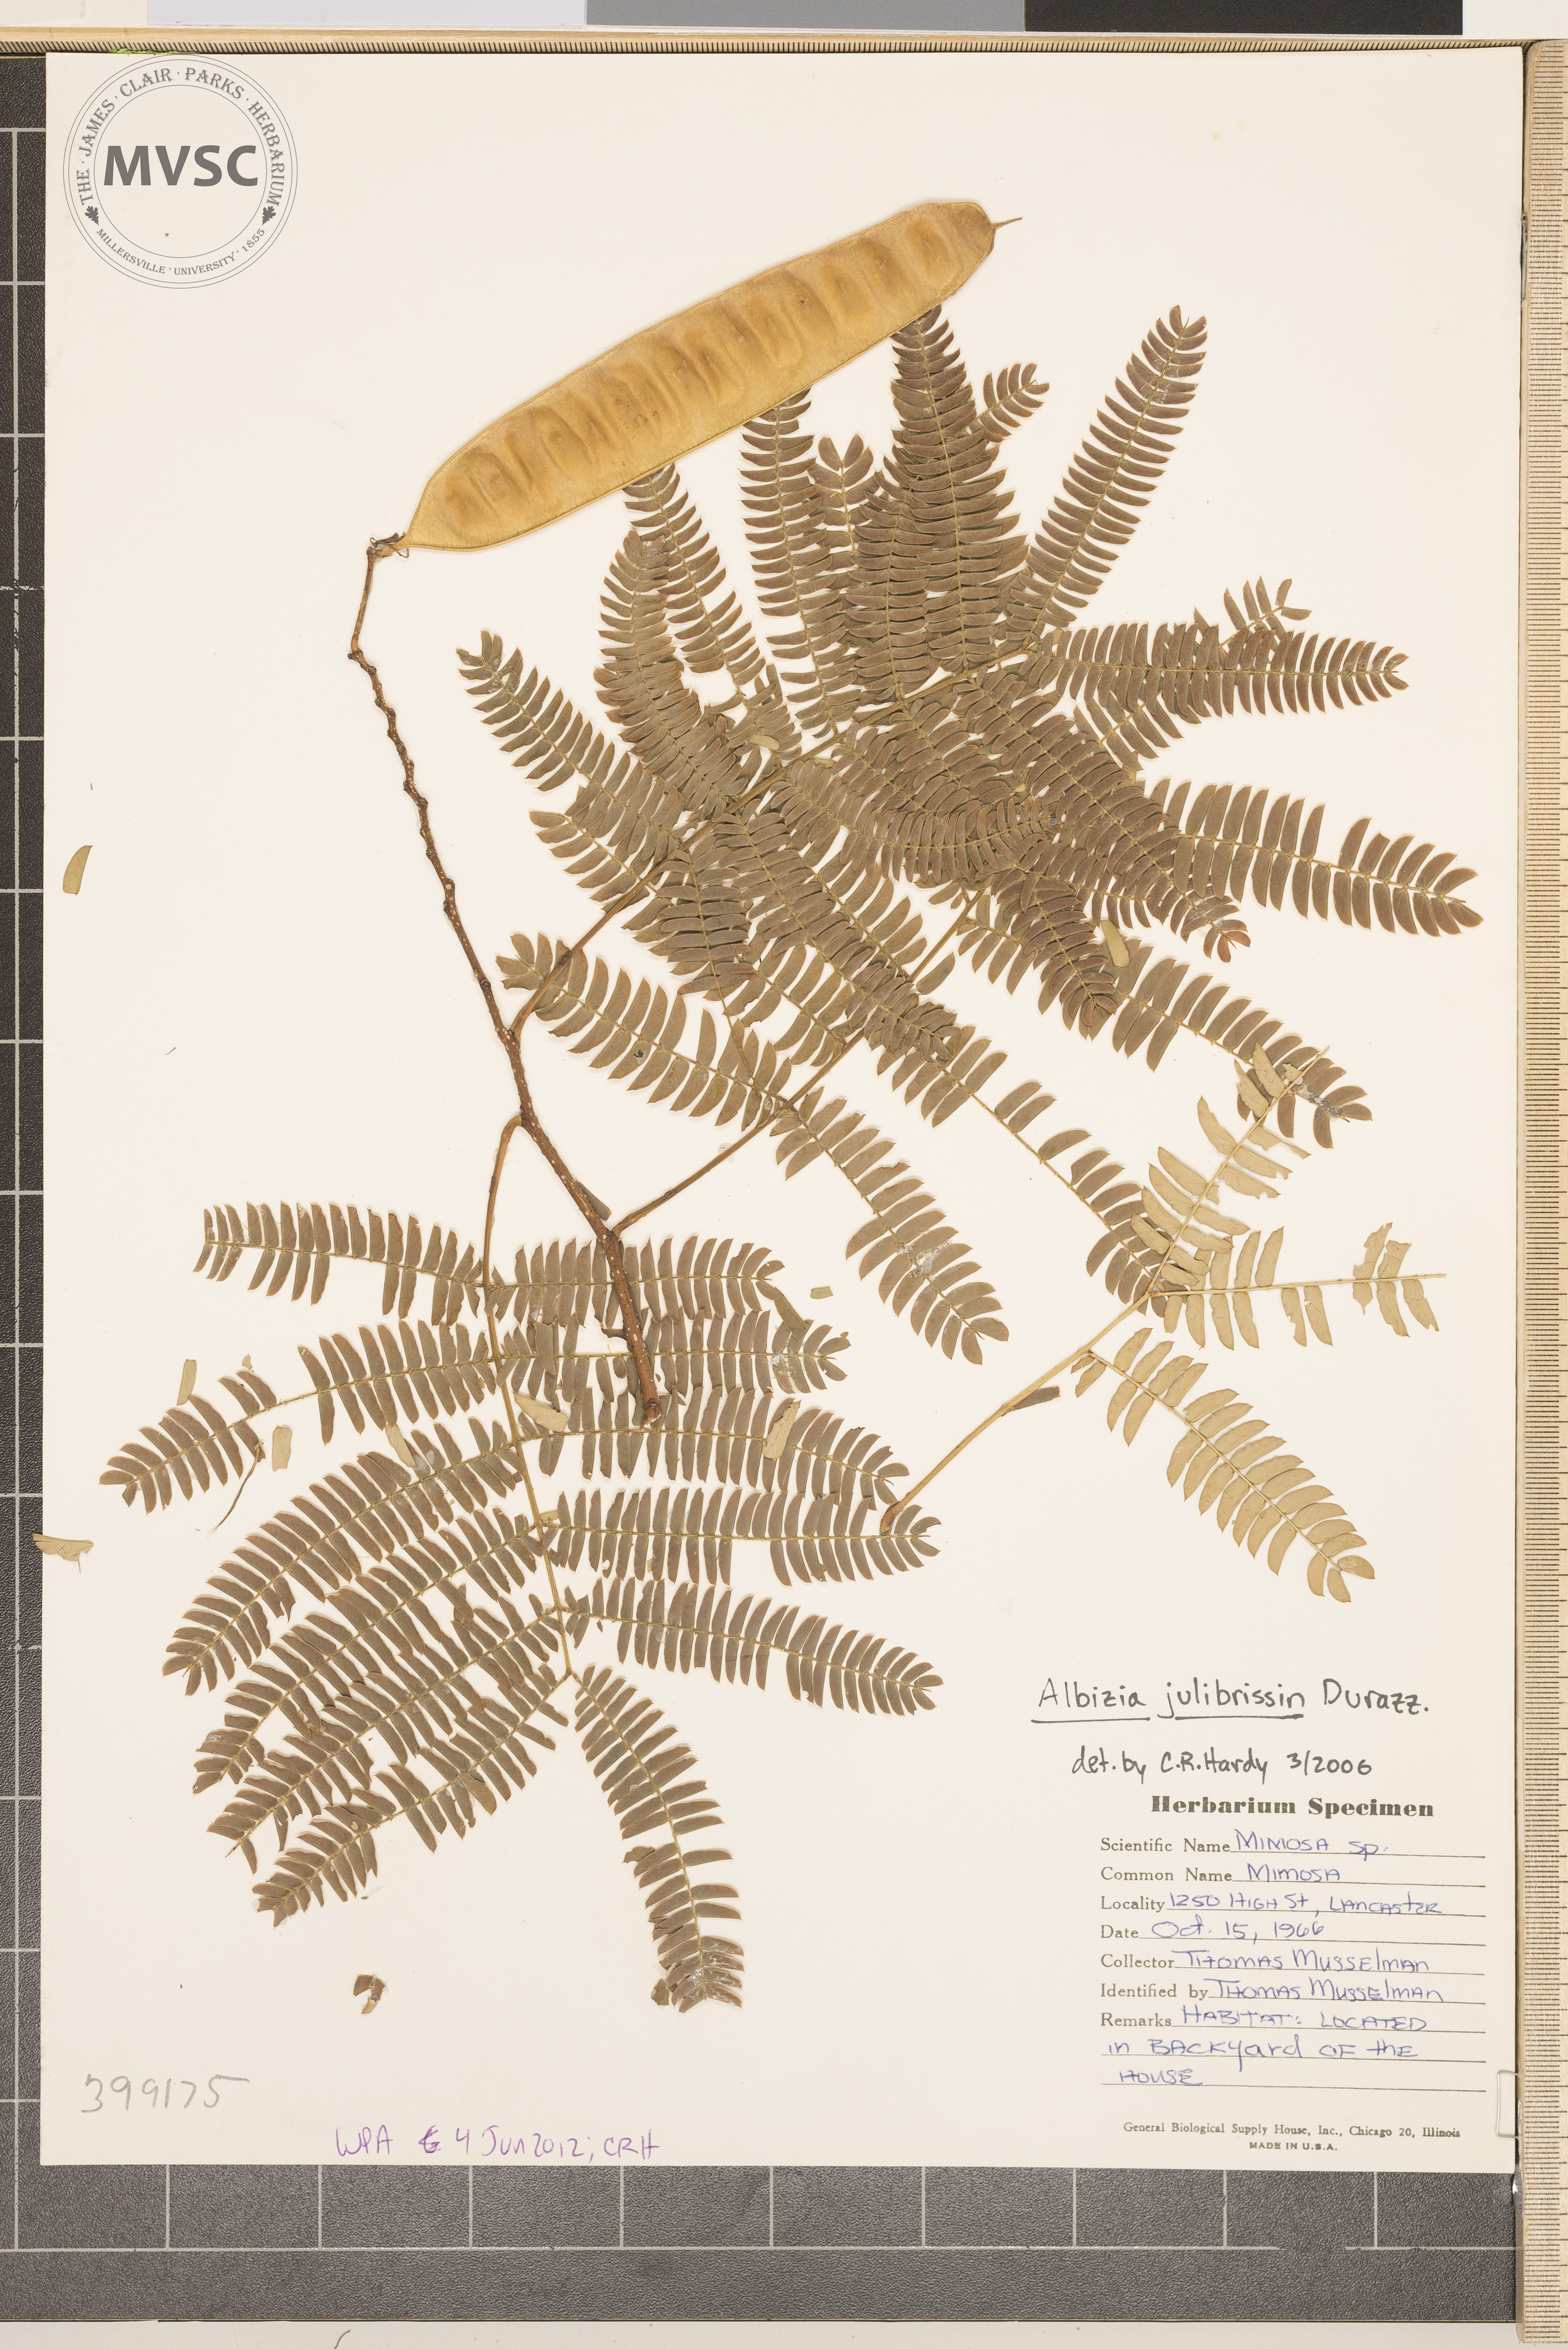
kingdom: Plantae
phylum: Tracheophyta
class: Magnoliopsida
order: Fabales
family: Fabaceae
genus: Albizia
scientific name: Albizia julibrissin
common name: Mimosa
